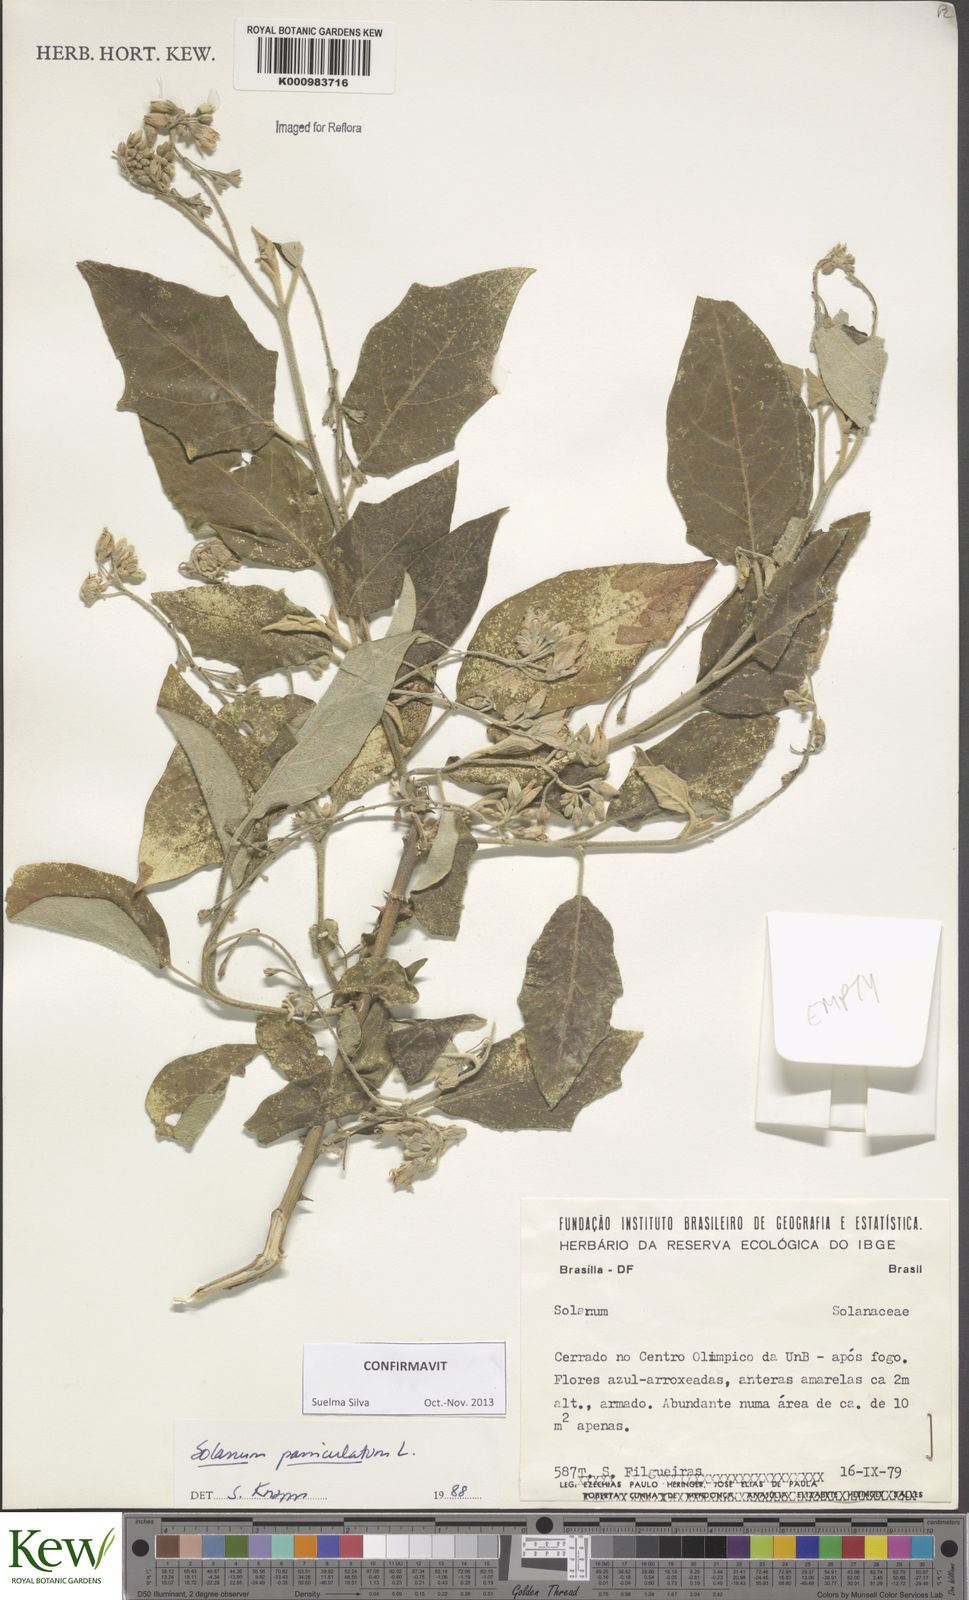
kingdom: Plantae
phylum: Tracheophyta
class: Magnoliopsida
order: Solanales
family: Solanaceae
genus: Solanum
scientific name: Solanum paniculatum
